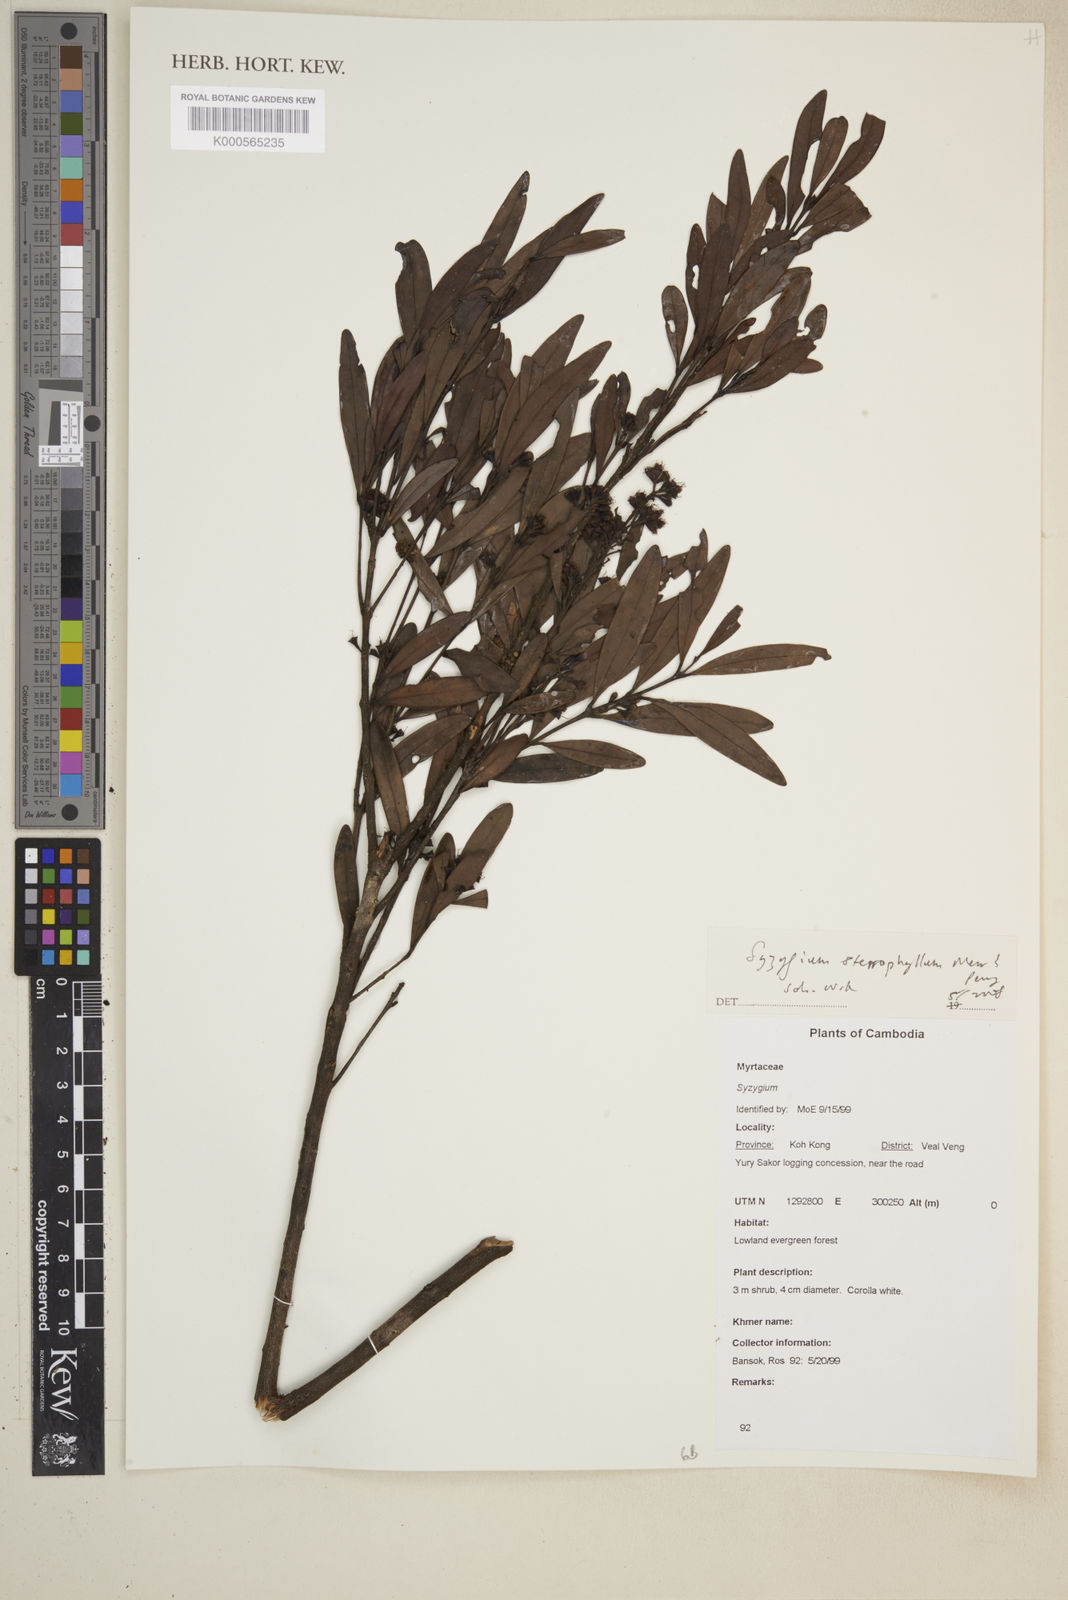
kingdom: Plantae
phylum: Tracheophyta
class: Magnoliopsida
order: Myrtales
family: Myrtaceae
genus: Syzygium
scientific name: Syzygium sterrophyllum
